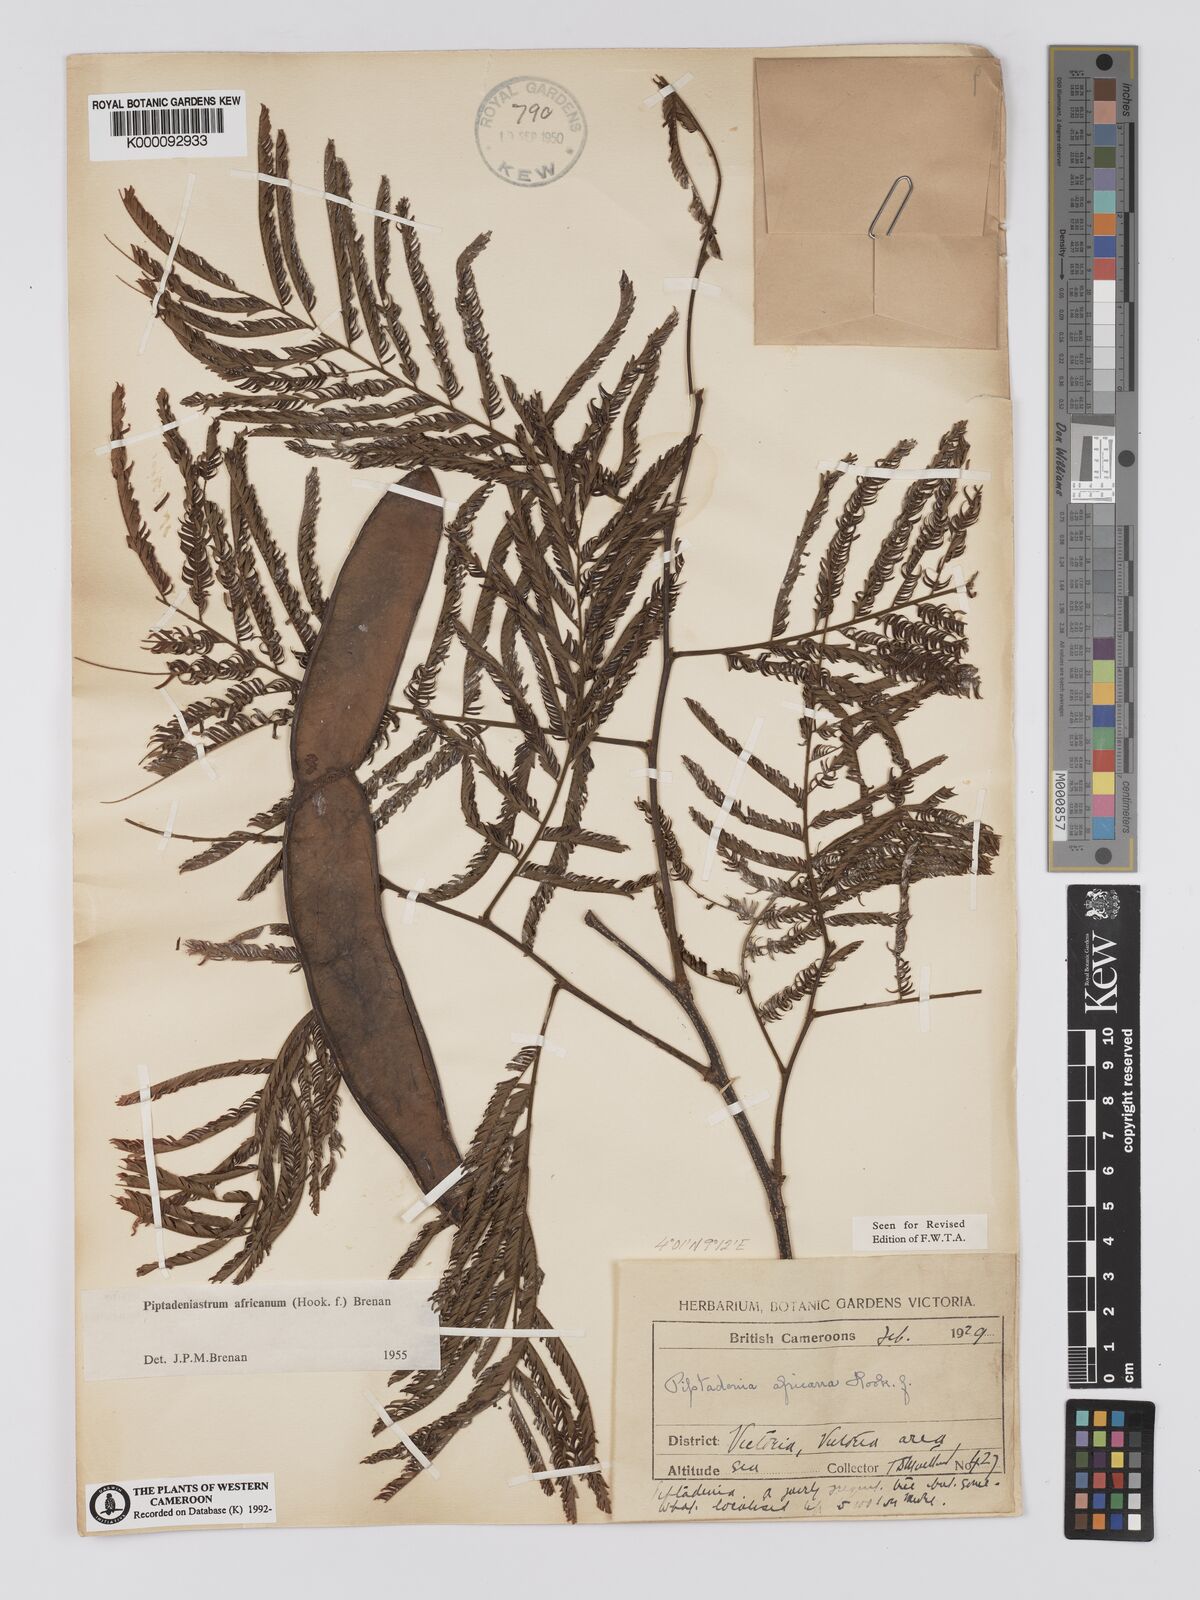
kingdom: Plantae
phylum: Tracheophyta
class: Magnoliopsida
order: Fabales
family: Fabaceae
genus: Piptadeniastrum
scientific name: Piptadeniastrum africanum
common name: African greenheart
